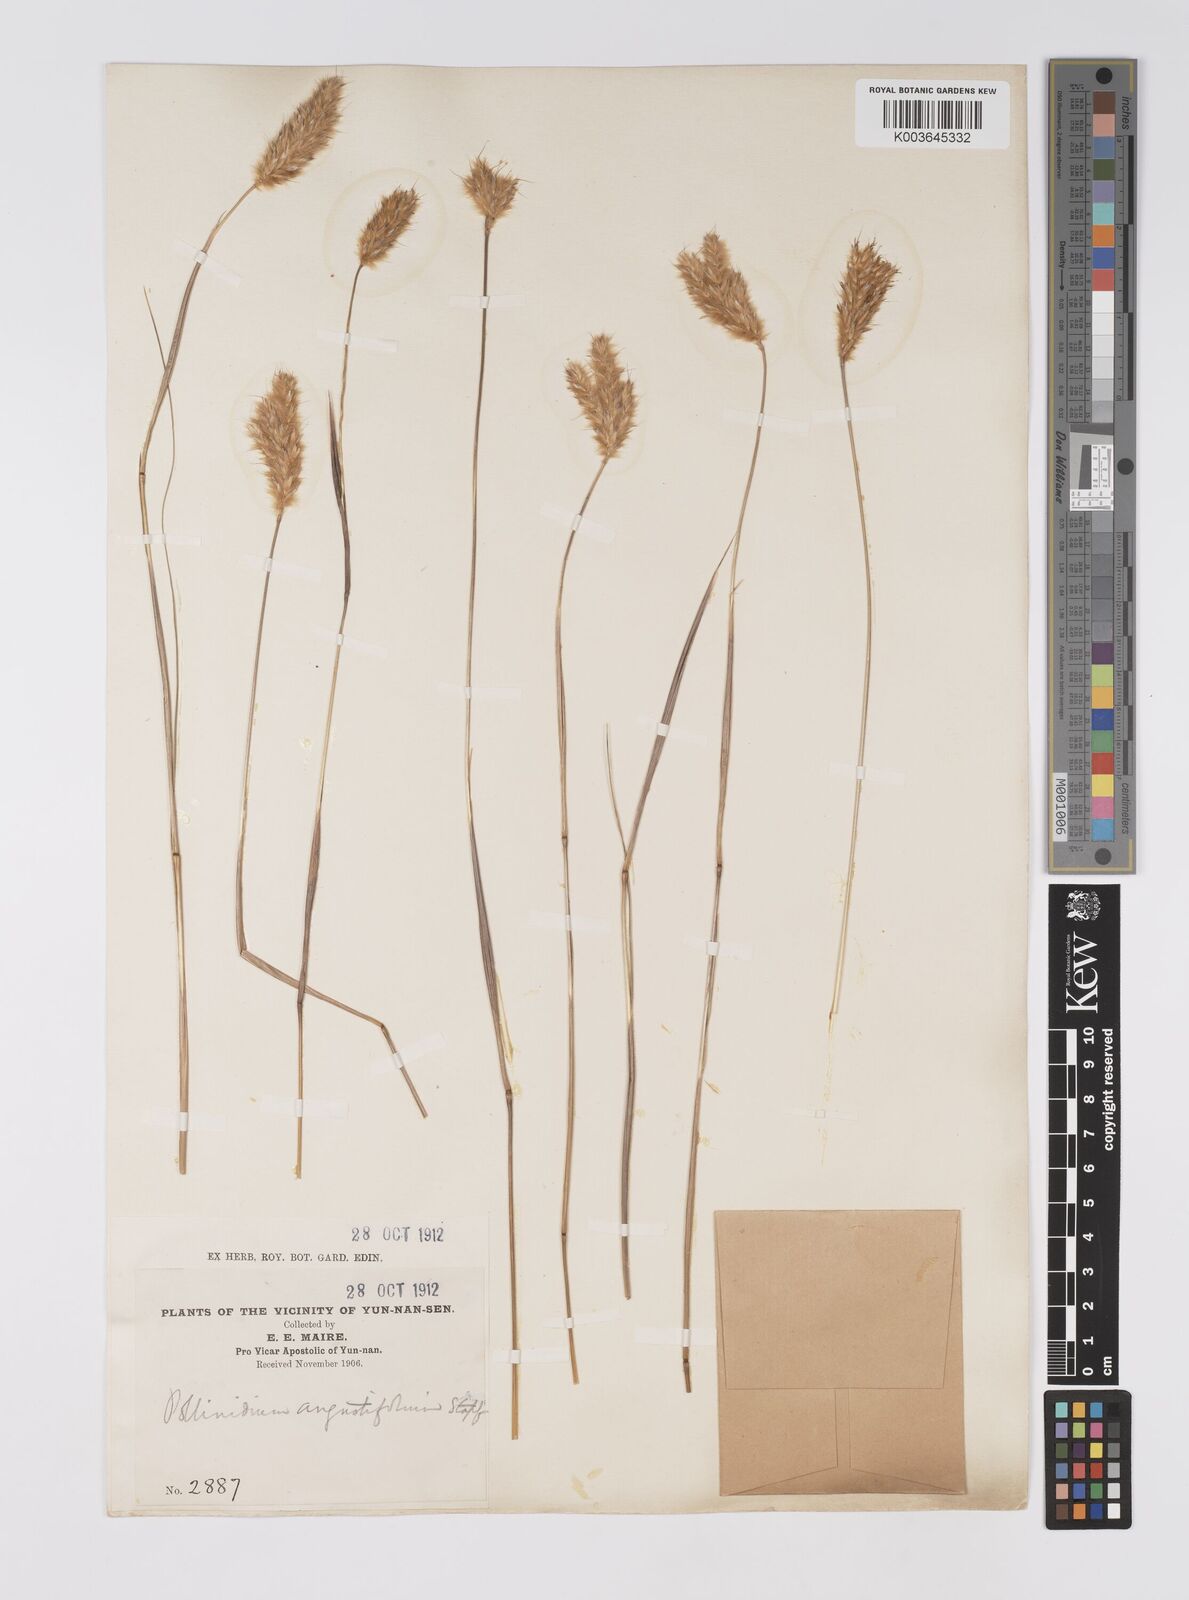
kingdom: Plantae
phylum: Tracheophyta
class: Liliopsida
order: Poales
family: Poaceae
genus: Eulaliopsis
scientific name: Eulaliopsis binata
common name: Baib grass
